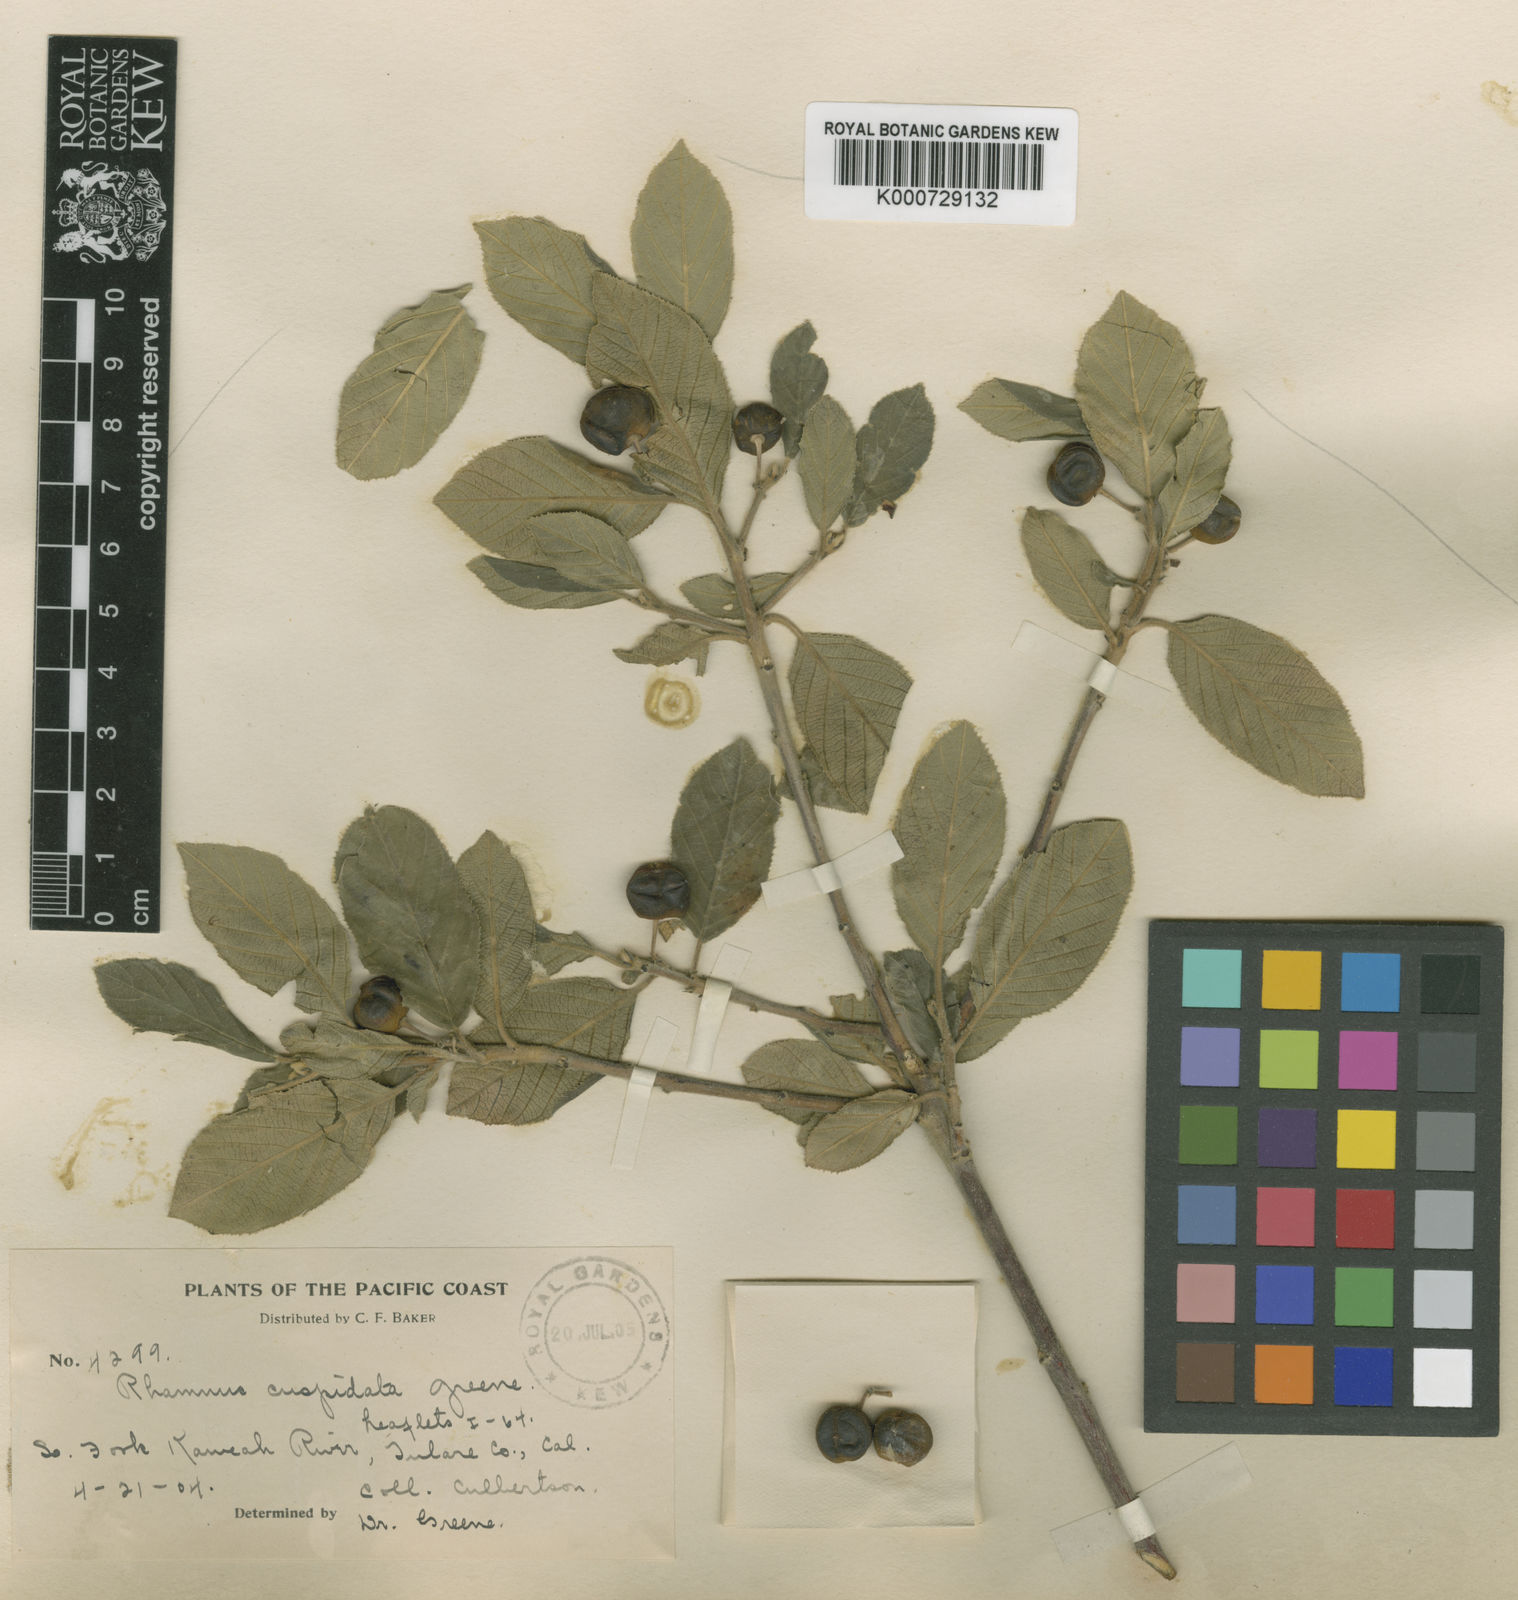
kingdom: Plantae
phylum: Tracheophyta
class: Magnoliopsida
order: Rosales
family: Rhamnaceae
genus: Frangula
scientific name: Frangula californica
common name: California buckthorn
